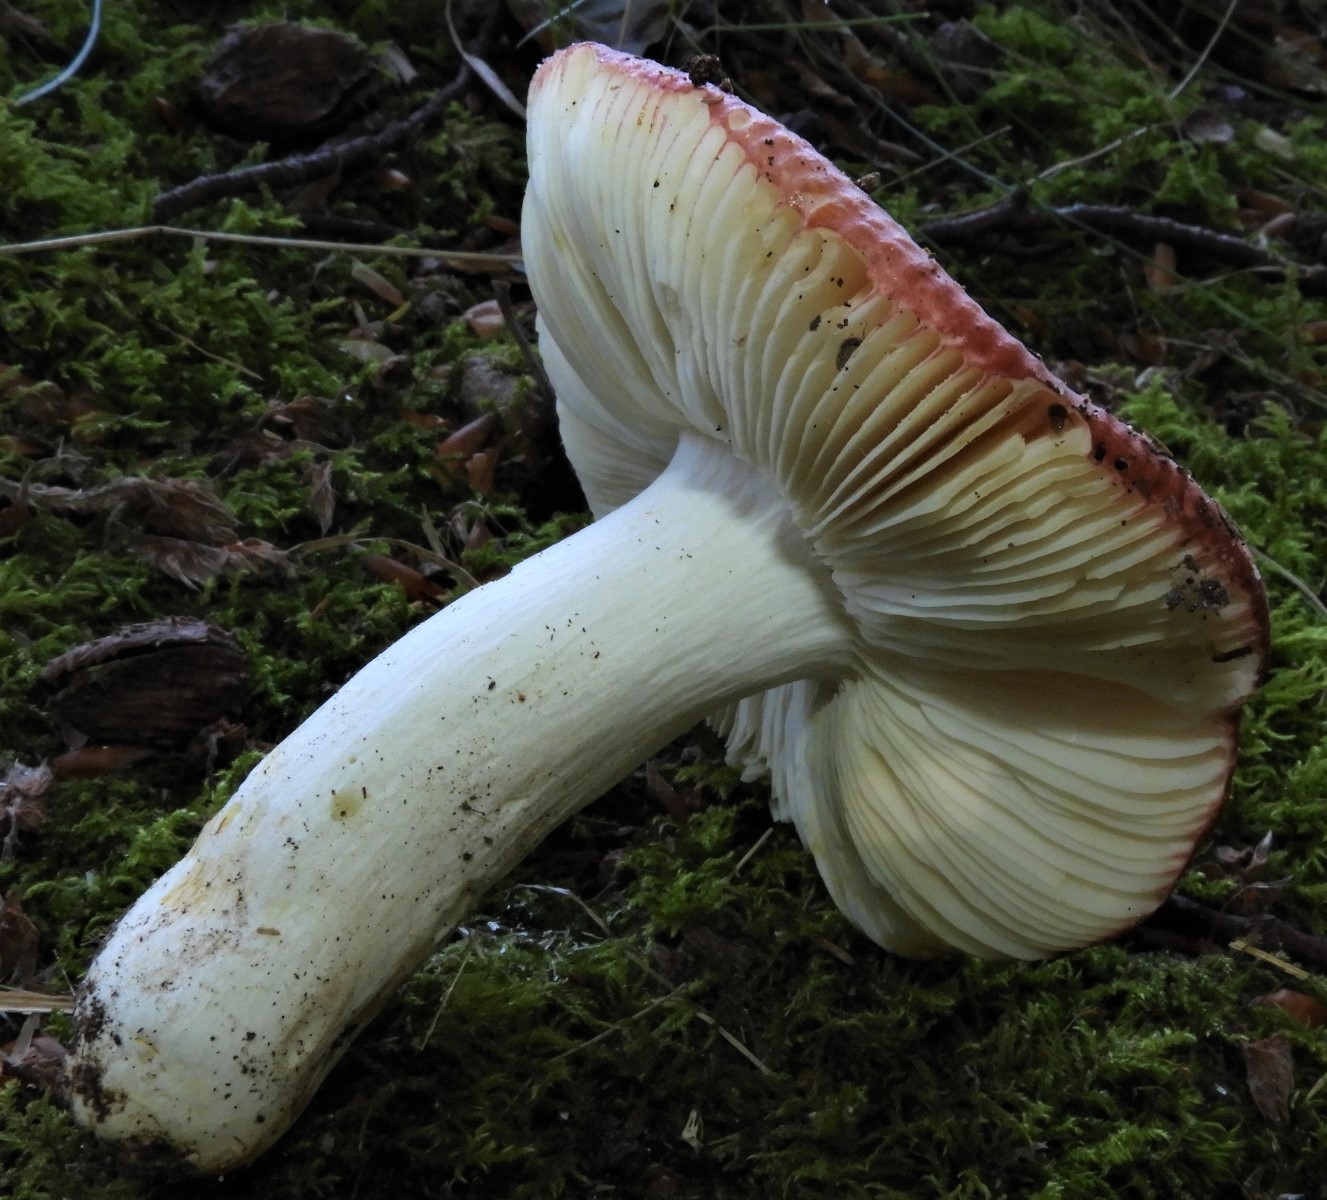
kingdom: Fungi
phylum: Basidiomycota
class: Agaricomycetes
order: Russulales
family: Russulaceae
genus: Russula
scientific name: Russula
